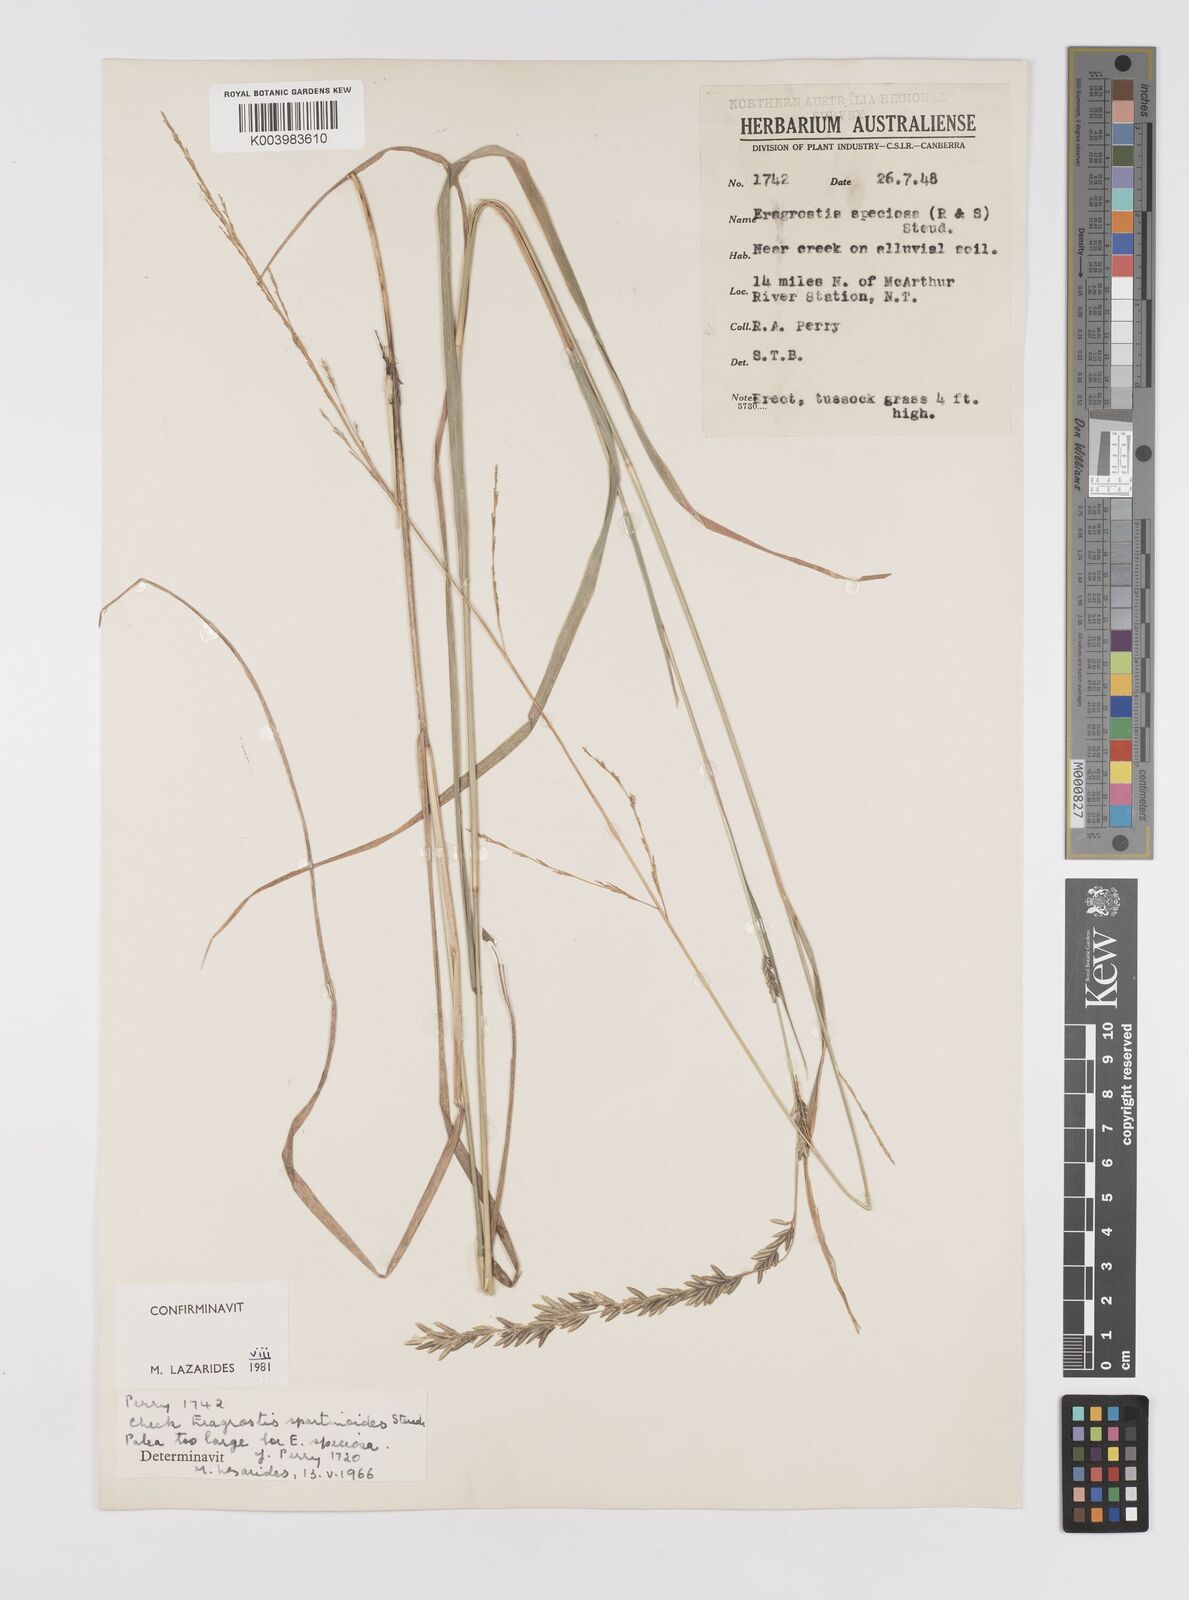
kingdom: Plantae
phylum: Tracheophyta
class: Liliopsida
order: Poales
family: Poaceae
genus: Eragrostis
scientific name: Eragrostis brownii
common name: Lovegrass
